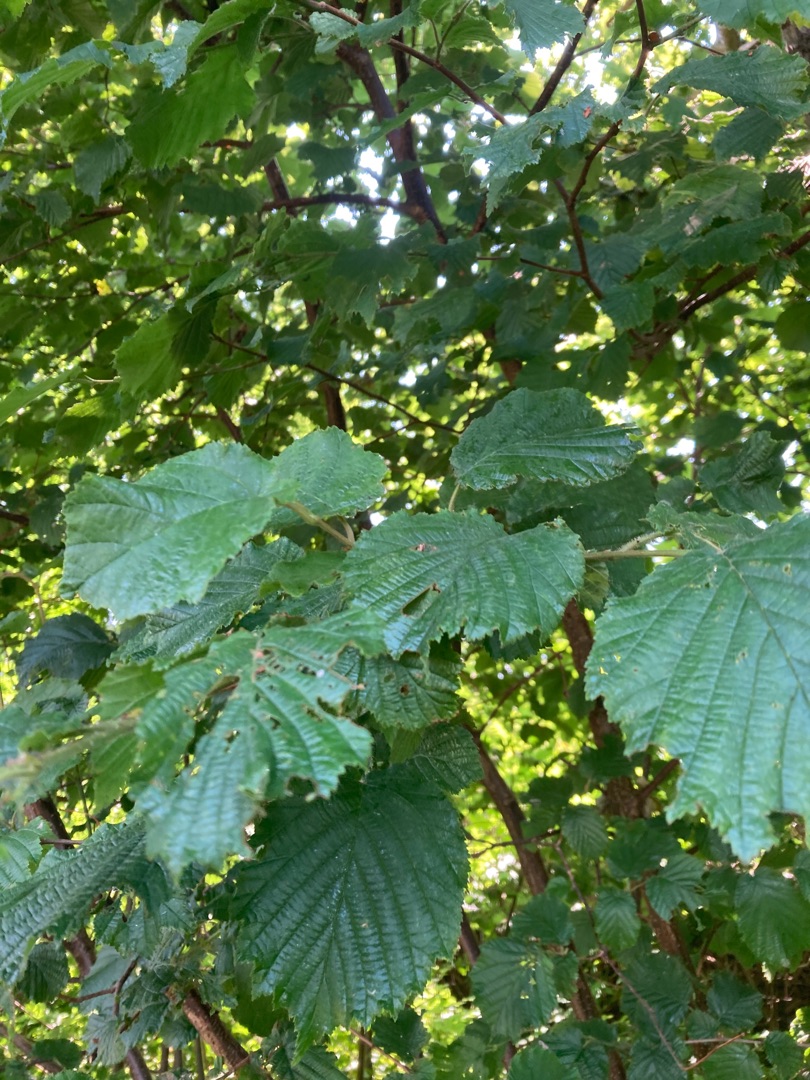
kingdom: Plantae
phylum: Tracheophyta
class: Magnoliopsida
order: Fagales
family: Betulaceae
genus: Corylus
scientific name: Corylus avellana
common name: Hassel
